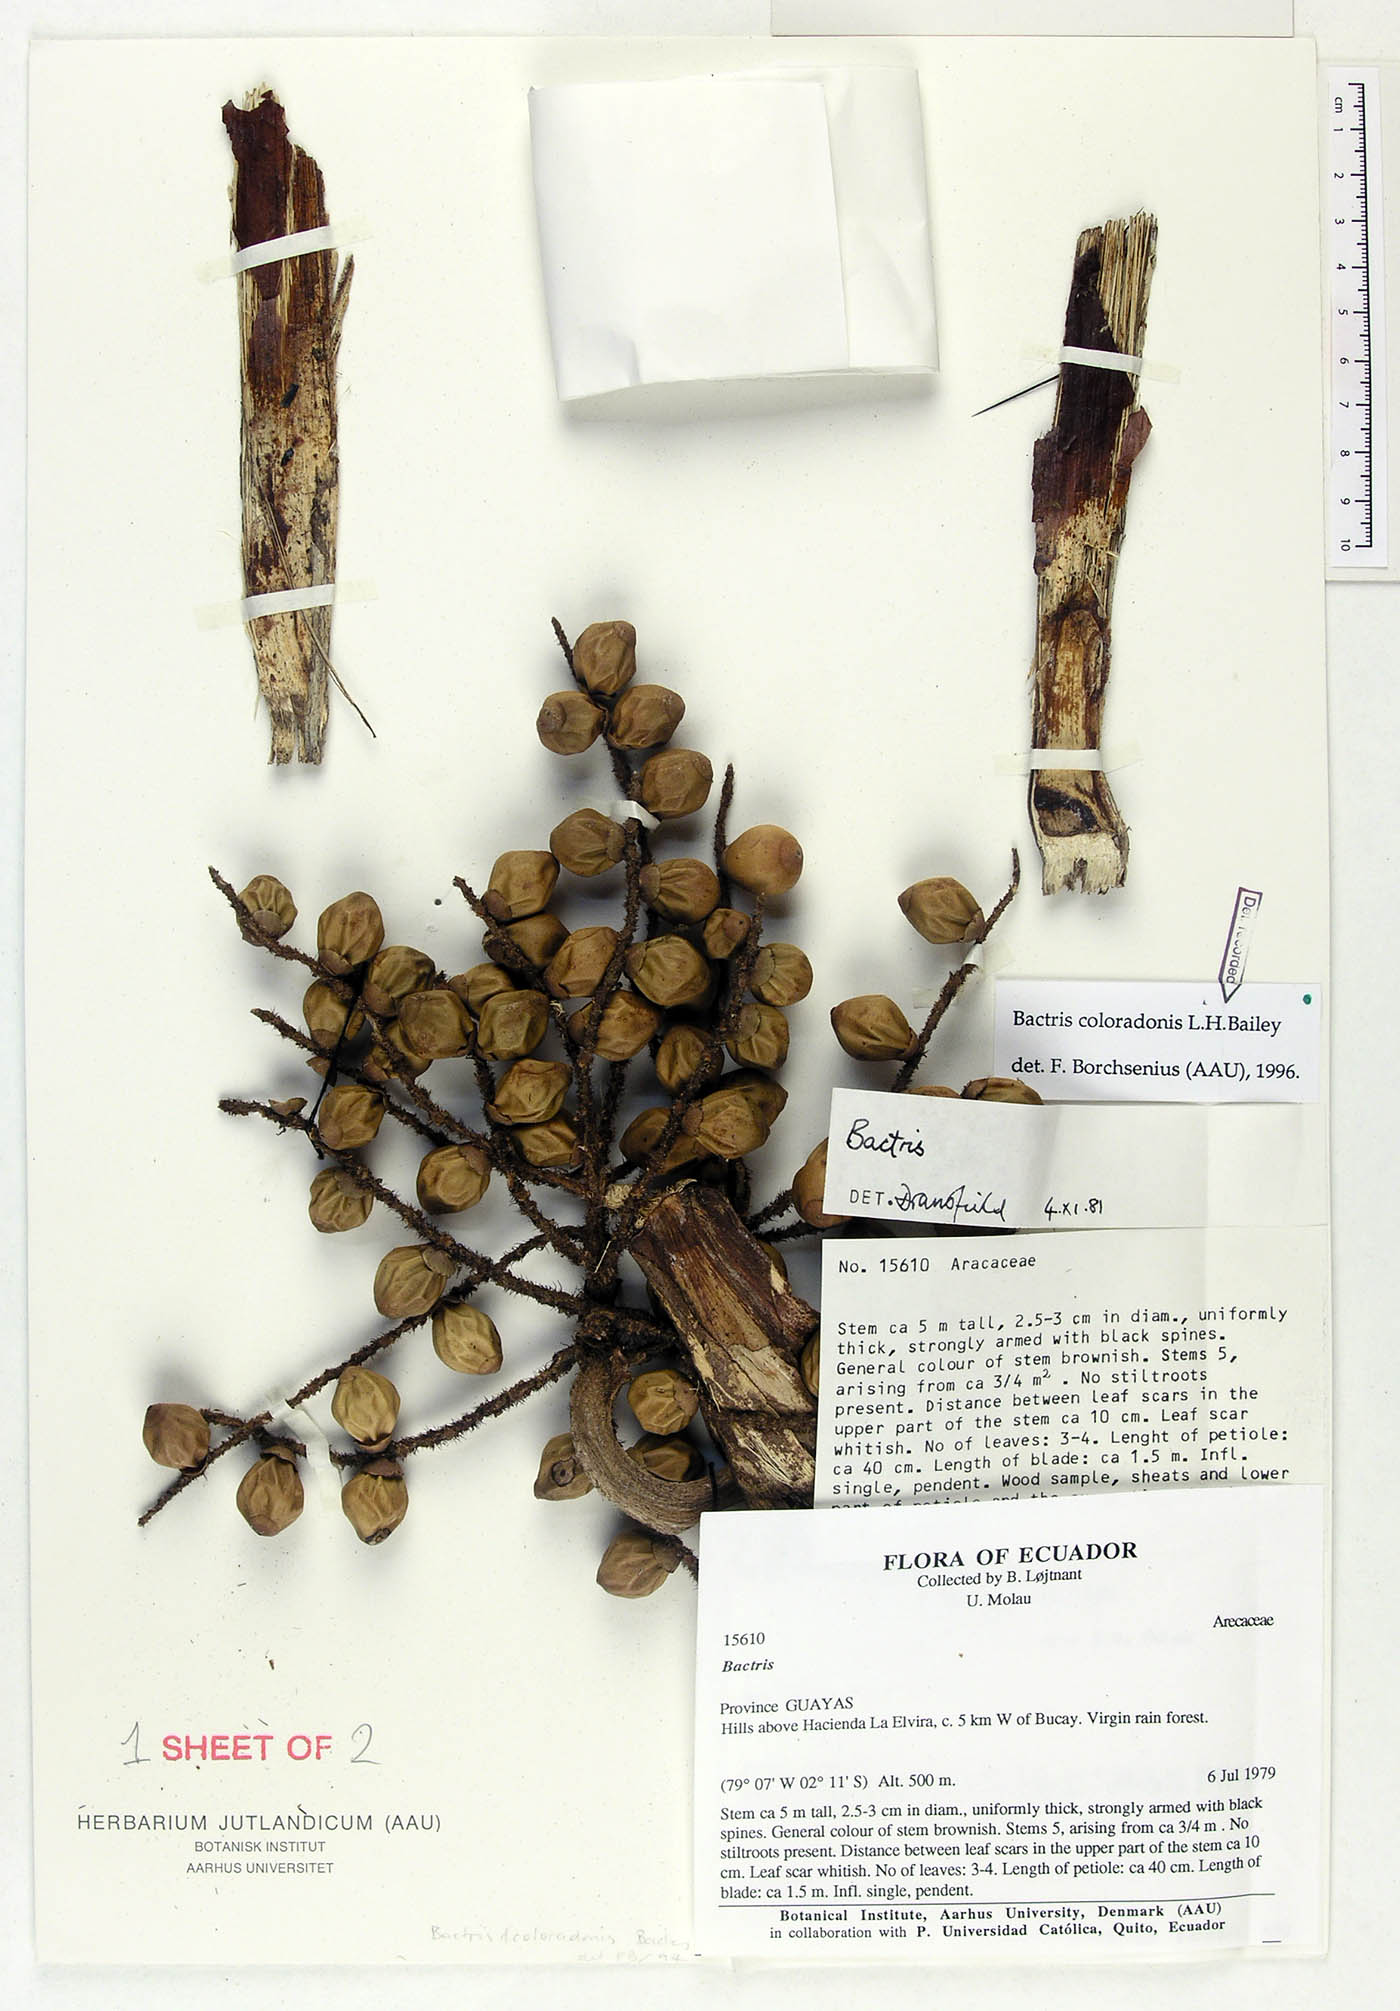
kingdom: Plantae
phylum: Tracheophyta
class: Liliopsida
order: Arecales
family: Arecaceae
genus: Bactris
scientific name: Bactris coloradonis
